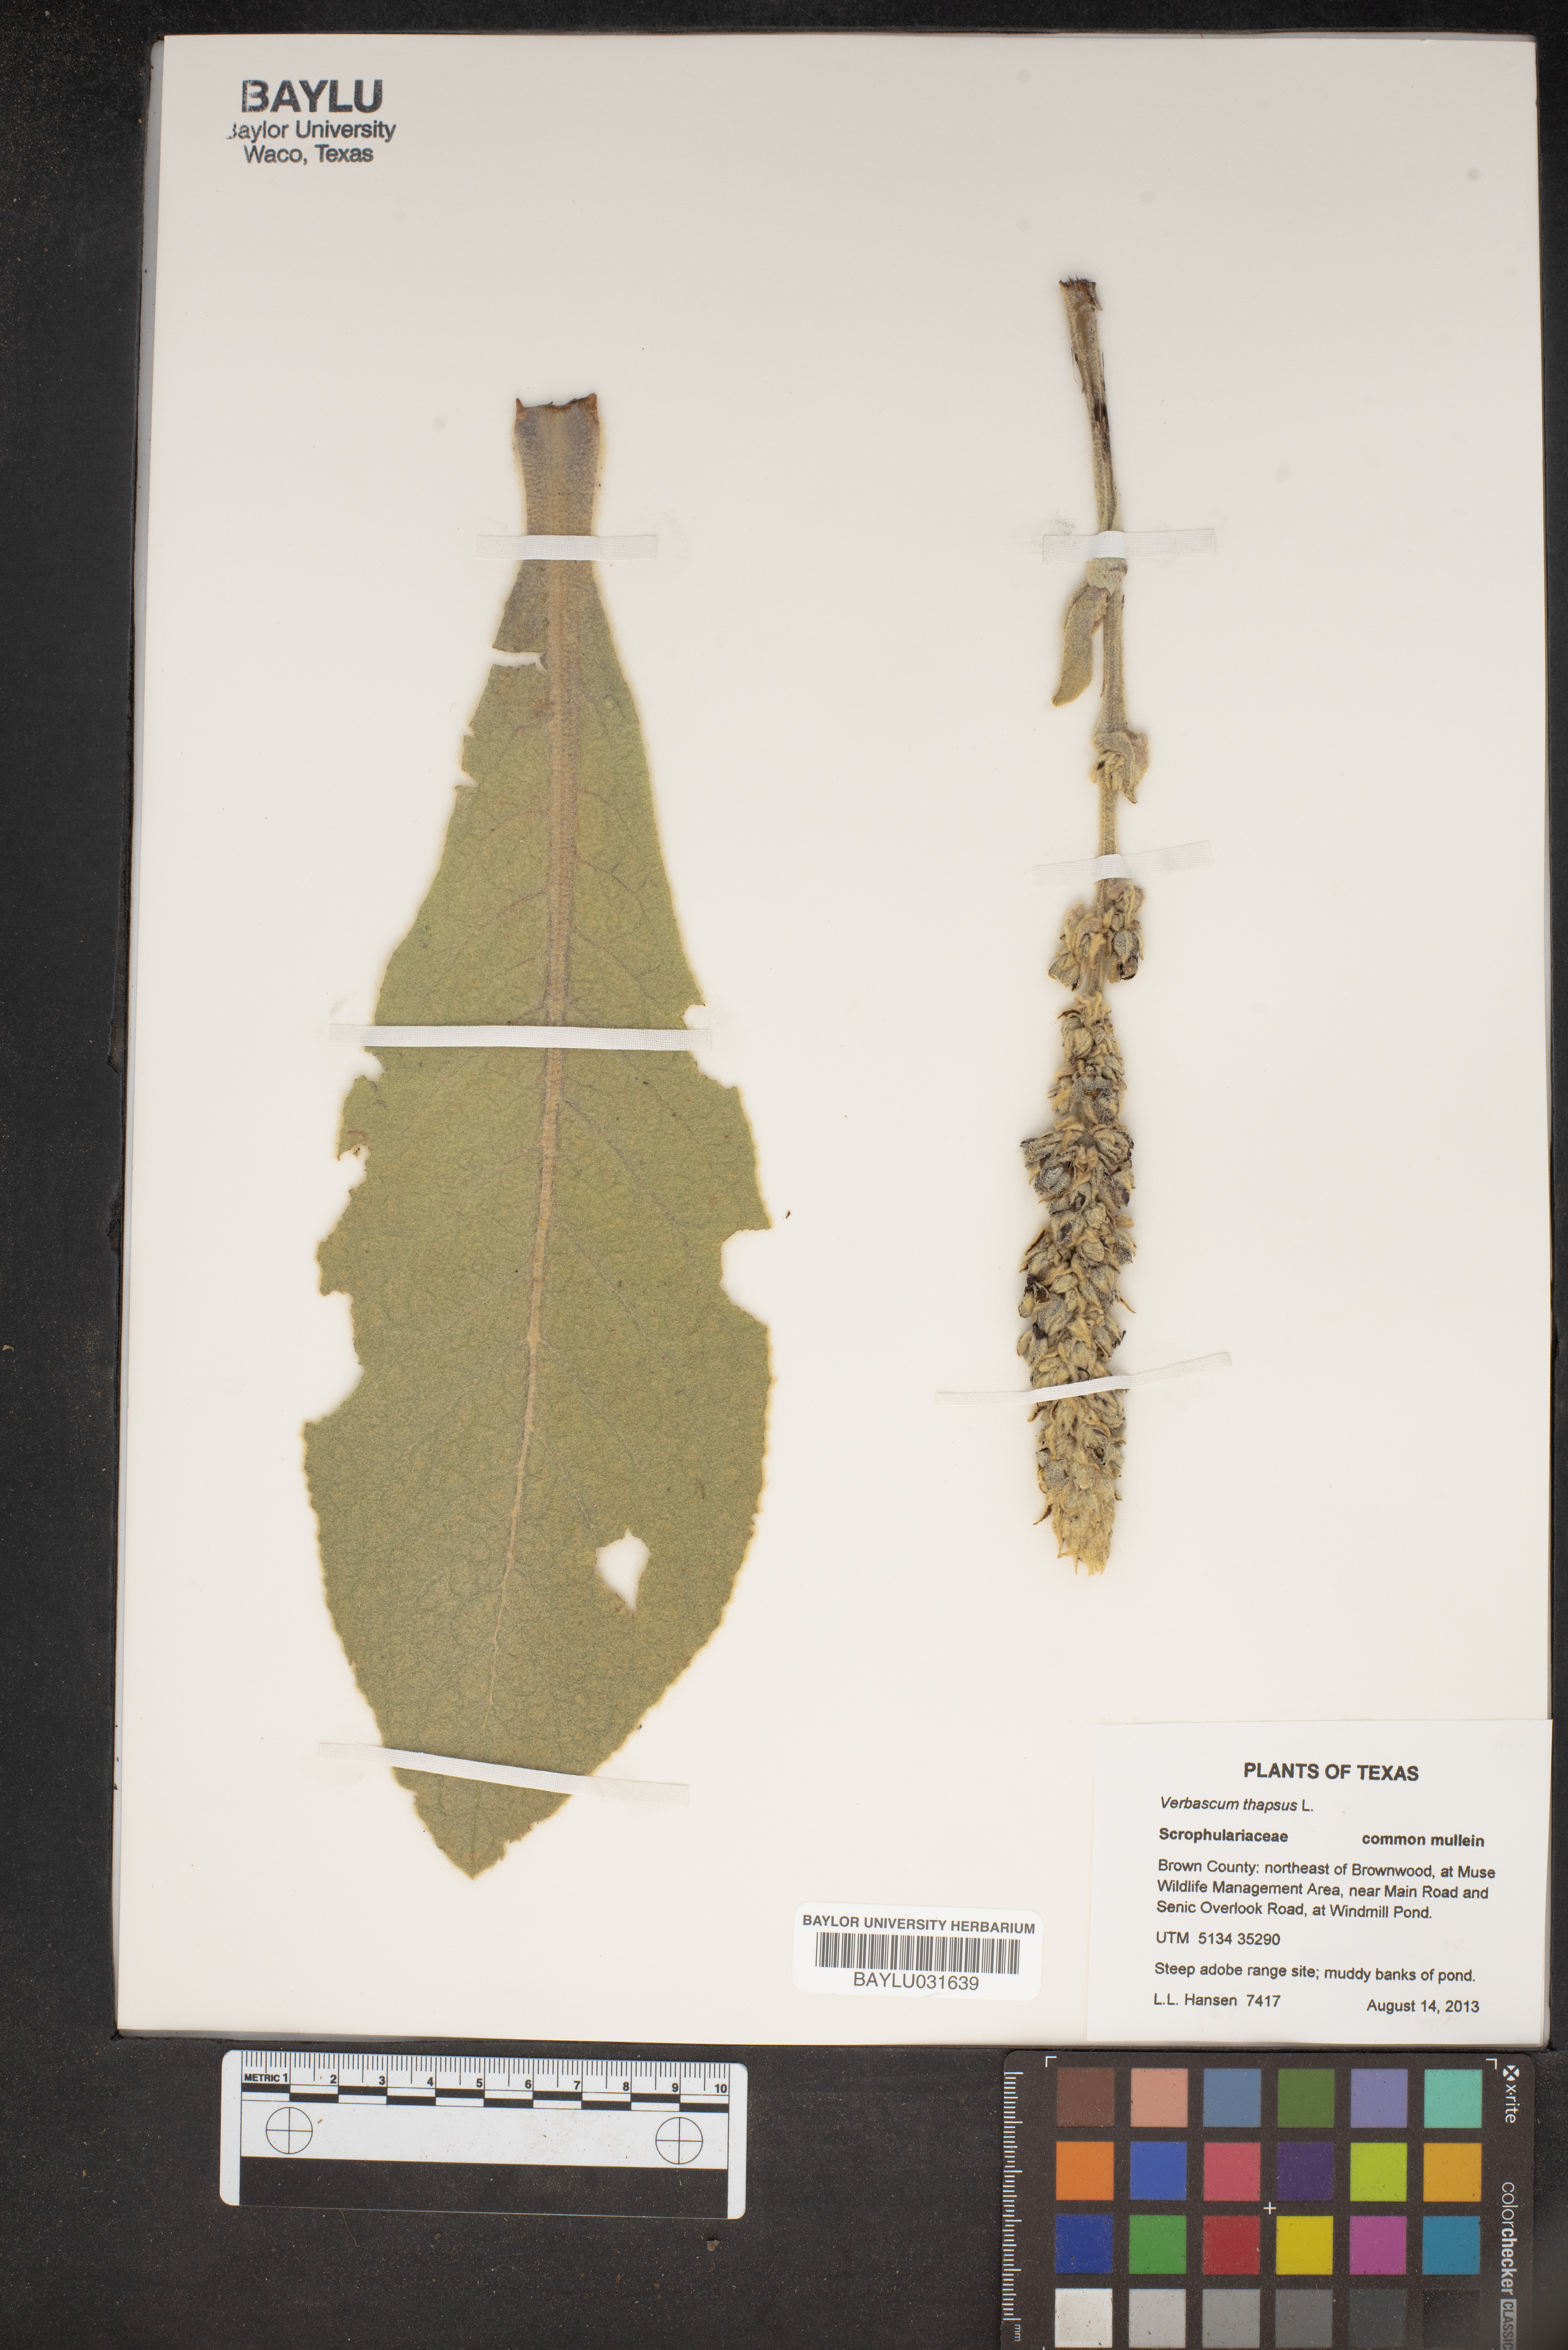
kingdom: Plantae
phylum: Tracheophyta
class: Magnoliopsida
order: Lamiales
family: Scrophulariaceae
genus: Verbascum
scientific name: Verbascum thapsus
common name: Common mullein
